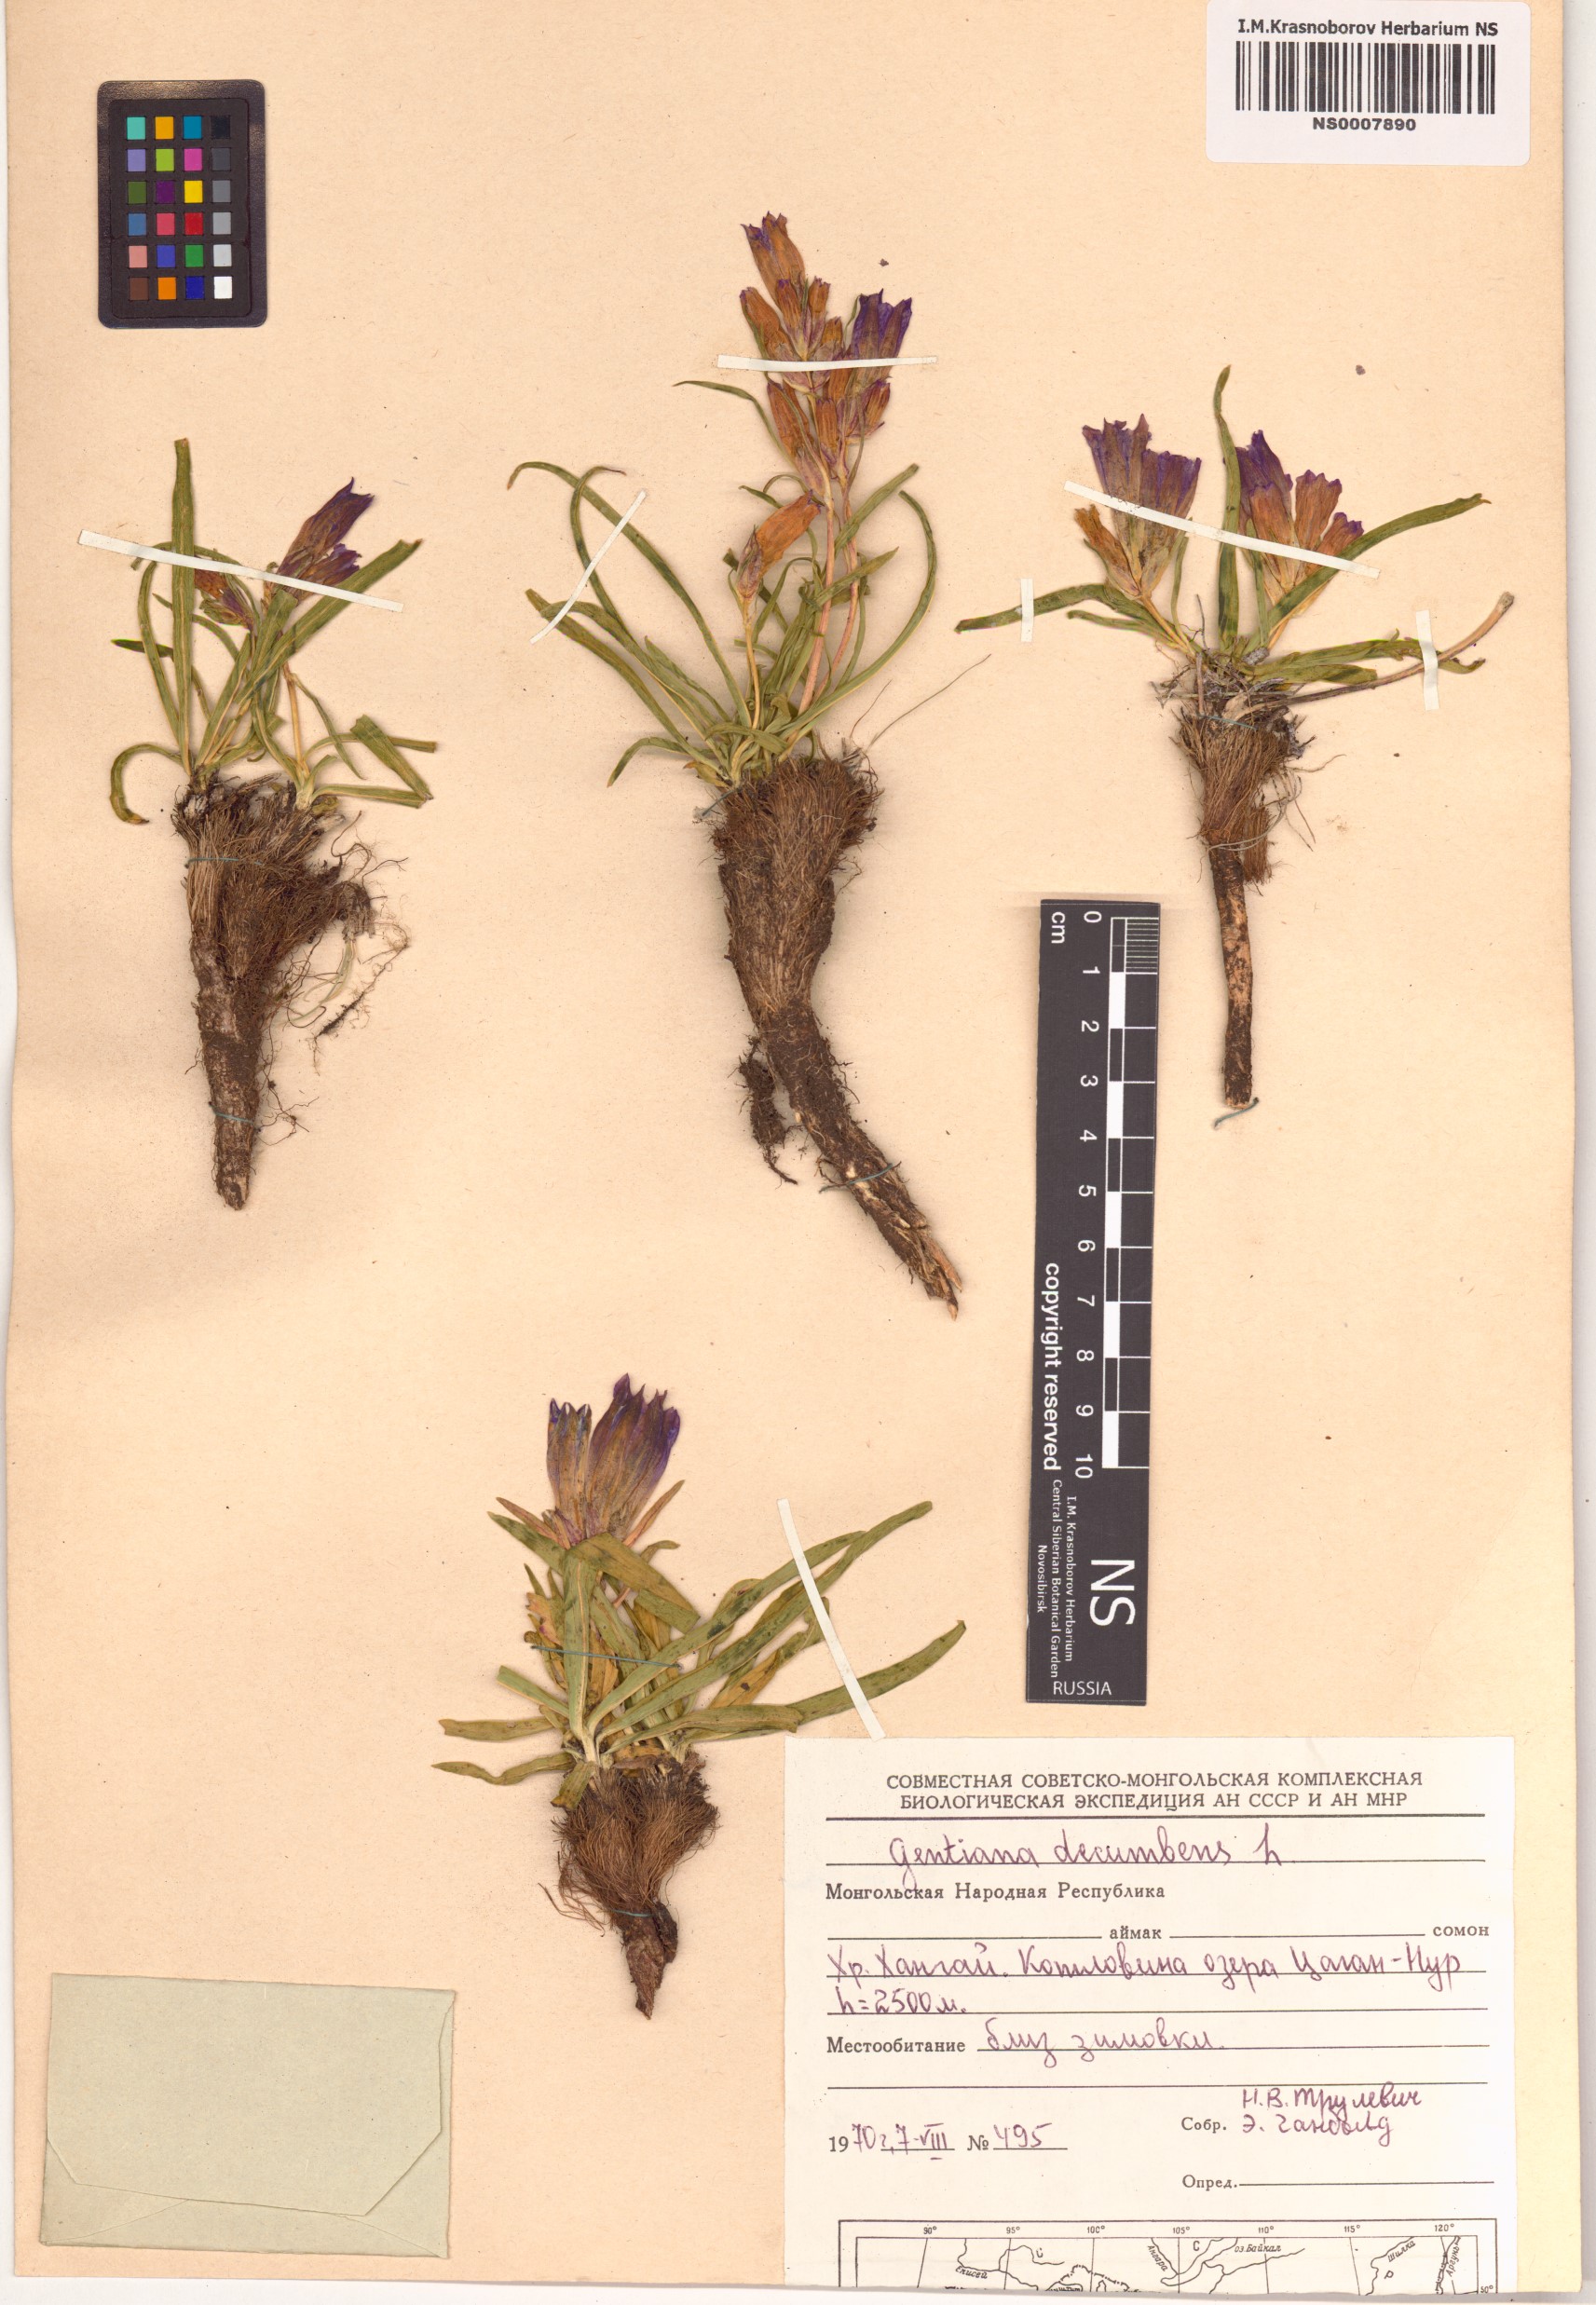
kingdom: Plantae
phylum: Tracheophyta
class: Magnoliopsida
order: Gentianales
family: Gentianaceae
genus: Gentiana
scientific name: Gentiana decumbens
